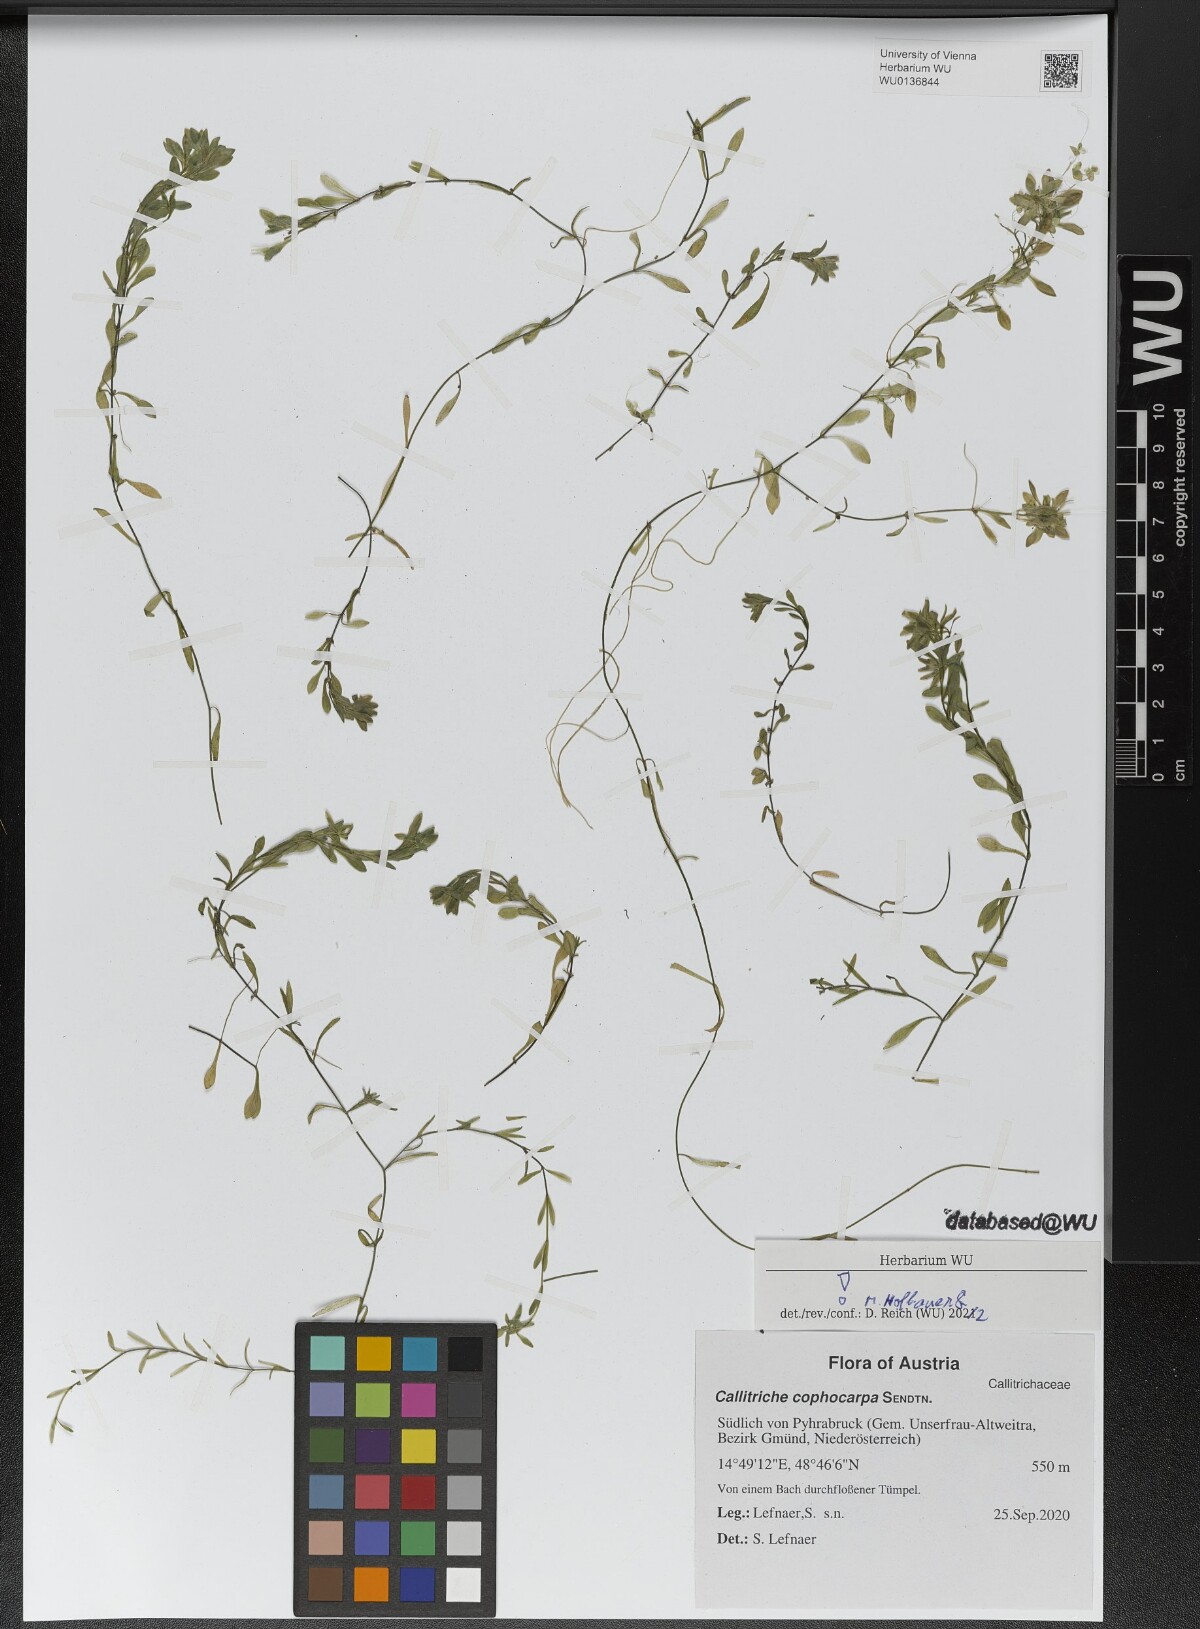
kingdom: Plantae
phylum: Tracheophyta
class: Magnoliopsida
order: Lamiales
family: Plantaginaceae
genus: Callitriche
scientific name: Callitriche cophocarpa
